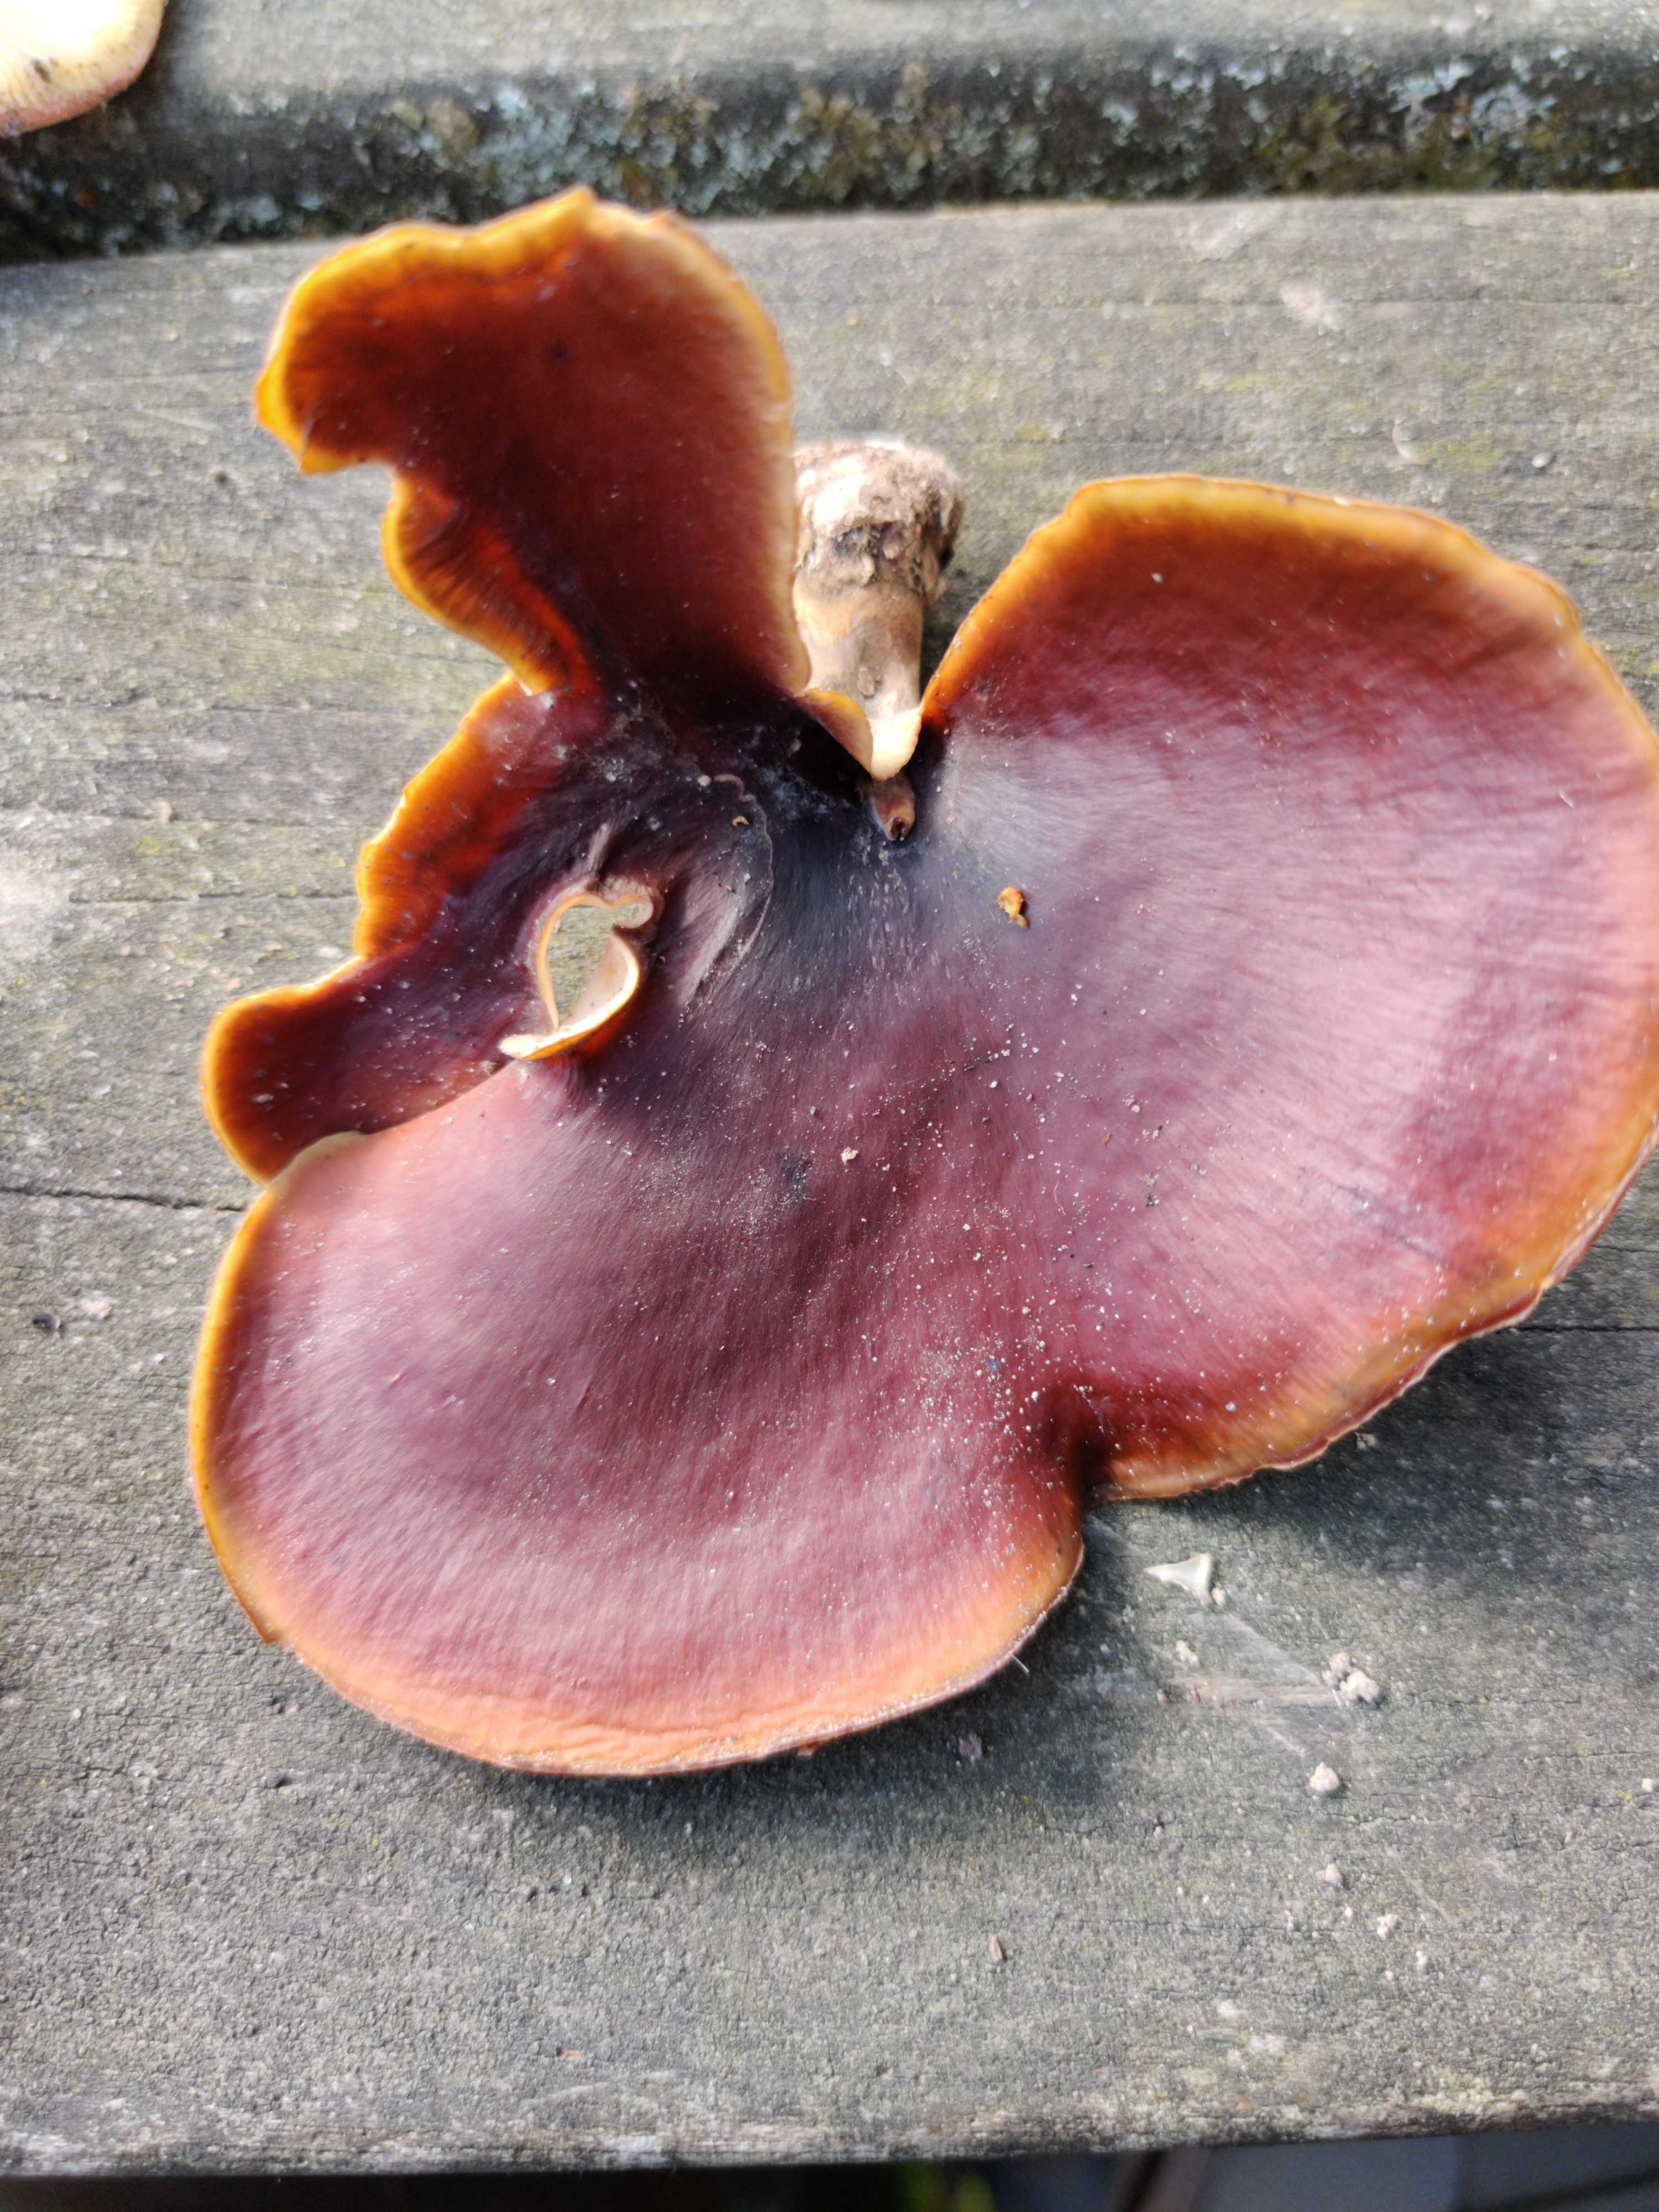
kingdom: Fungi
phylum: Basidiomycota
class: Agaricomycetes
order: Polyporales
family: Polyporaceae
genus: Picipes
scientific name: Picipes badius
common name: kastaniebrun stilkporesvamp
